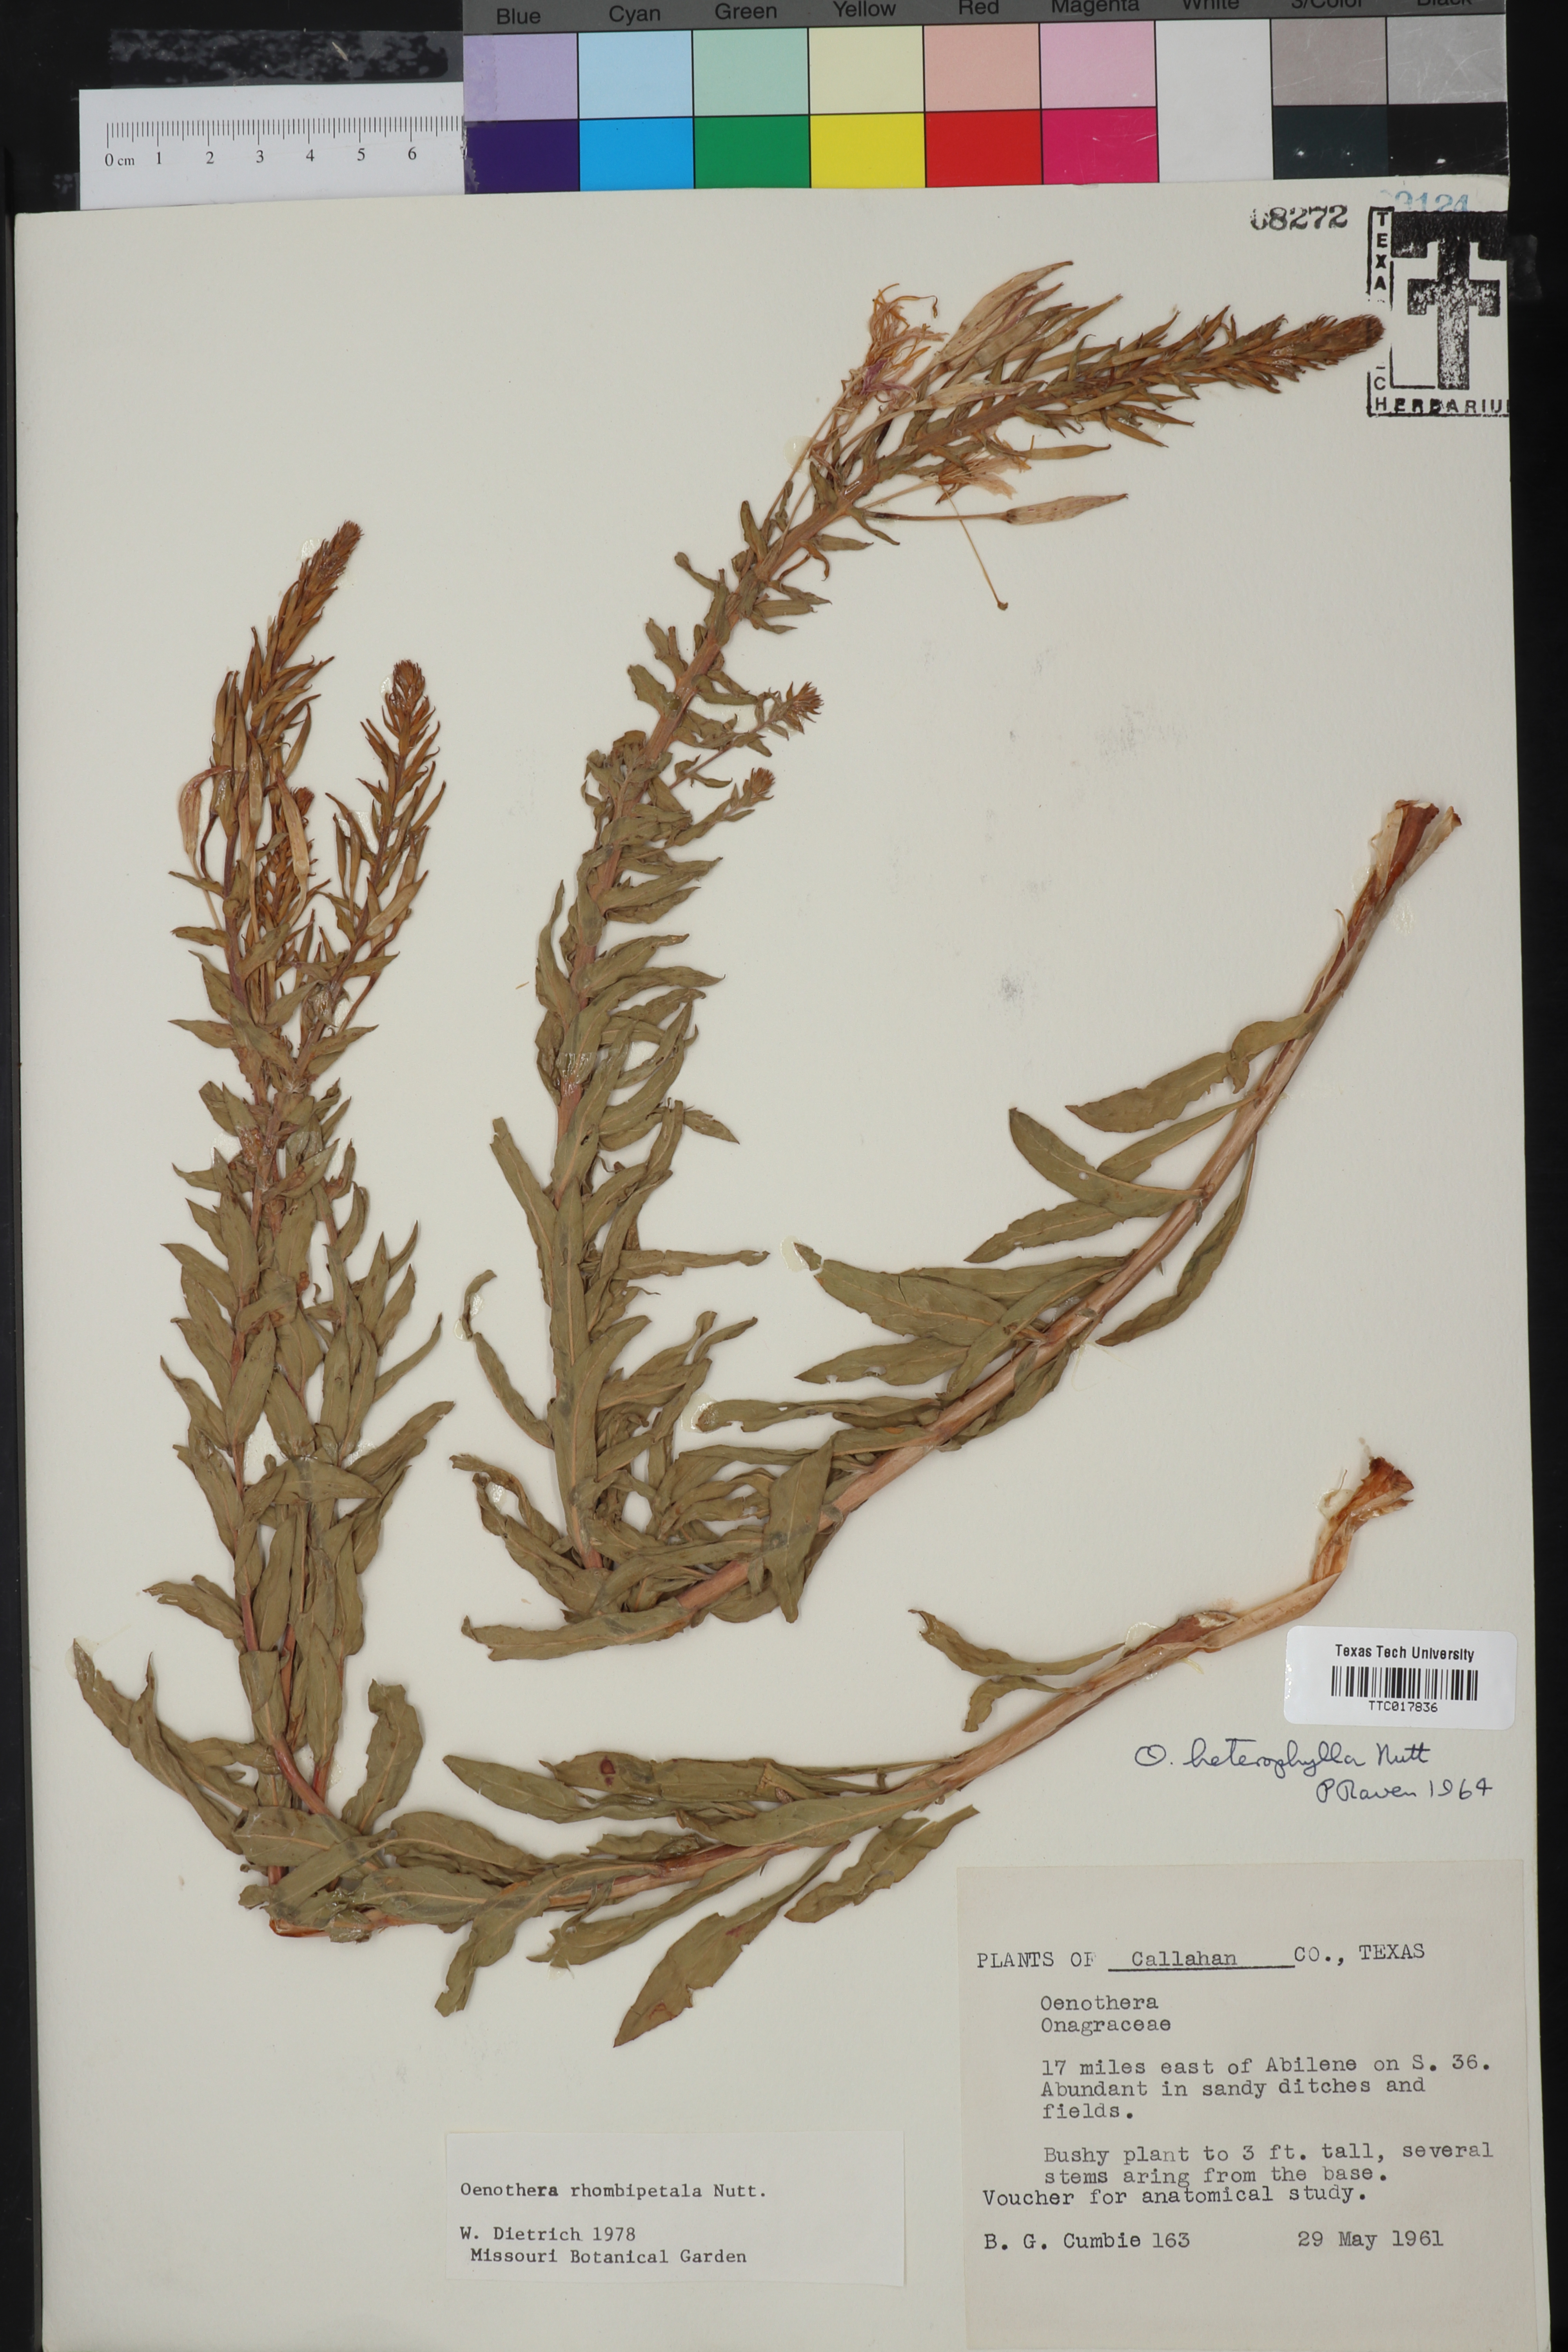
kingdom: Plantae
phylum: Tracheophyta
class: Magnoliopsida
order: Myrtales
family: Onagraceae
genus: Oenothera
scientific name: Oenothera rhombipetala
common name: Four-points evening-primrose
